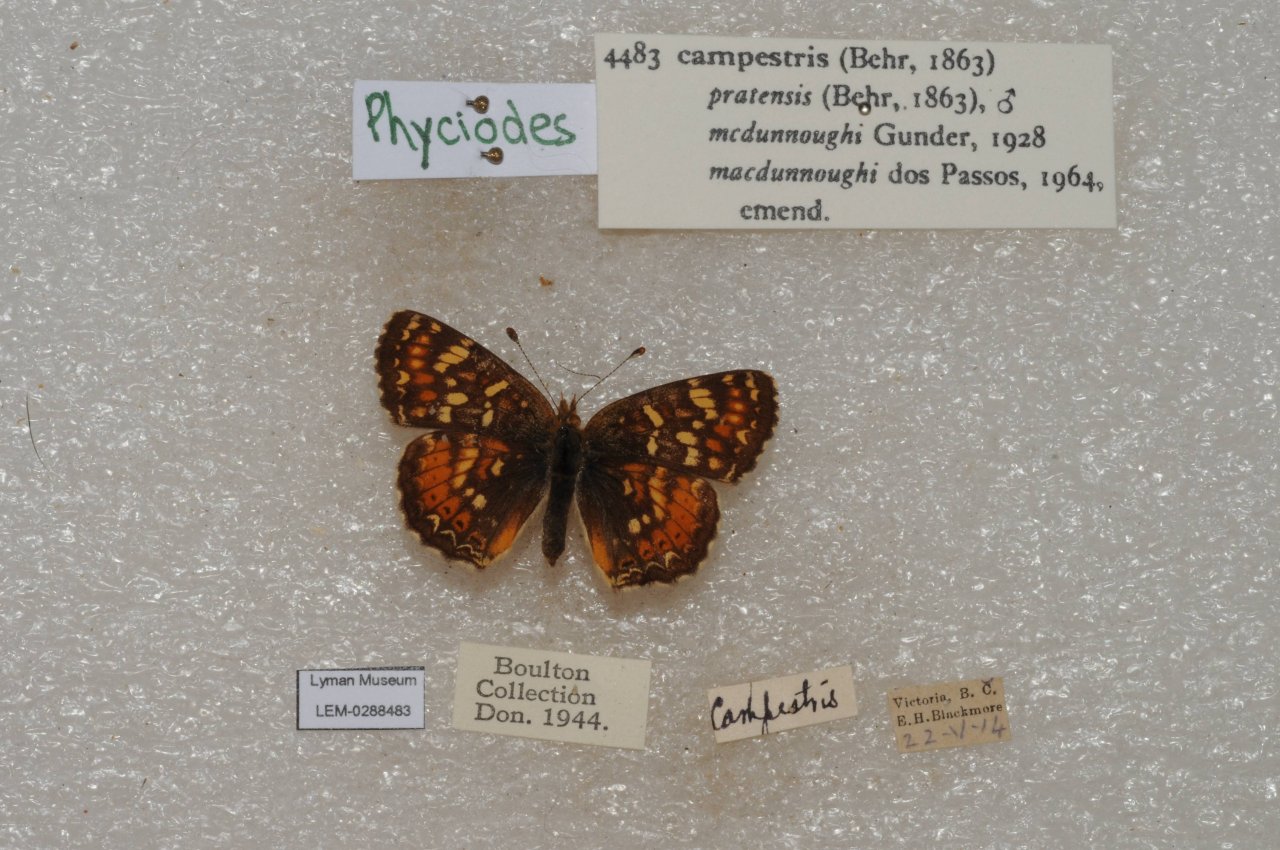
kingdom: Animalia
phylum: Arthropoda
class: Insecta
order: Lepidoptera
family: Nymphalidae
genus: Phyciodes
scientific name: Phyciodes tharos
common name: Field Crescent
